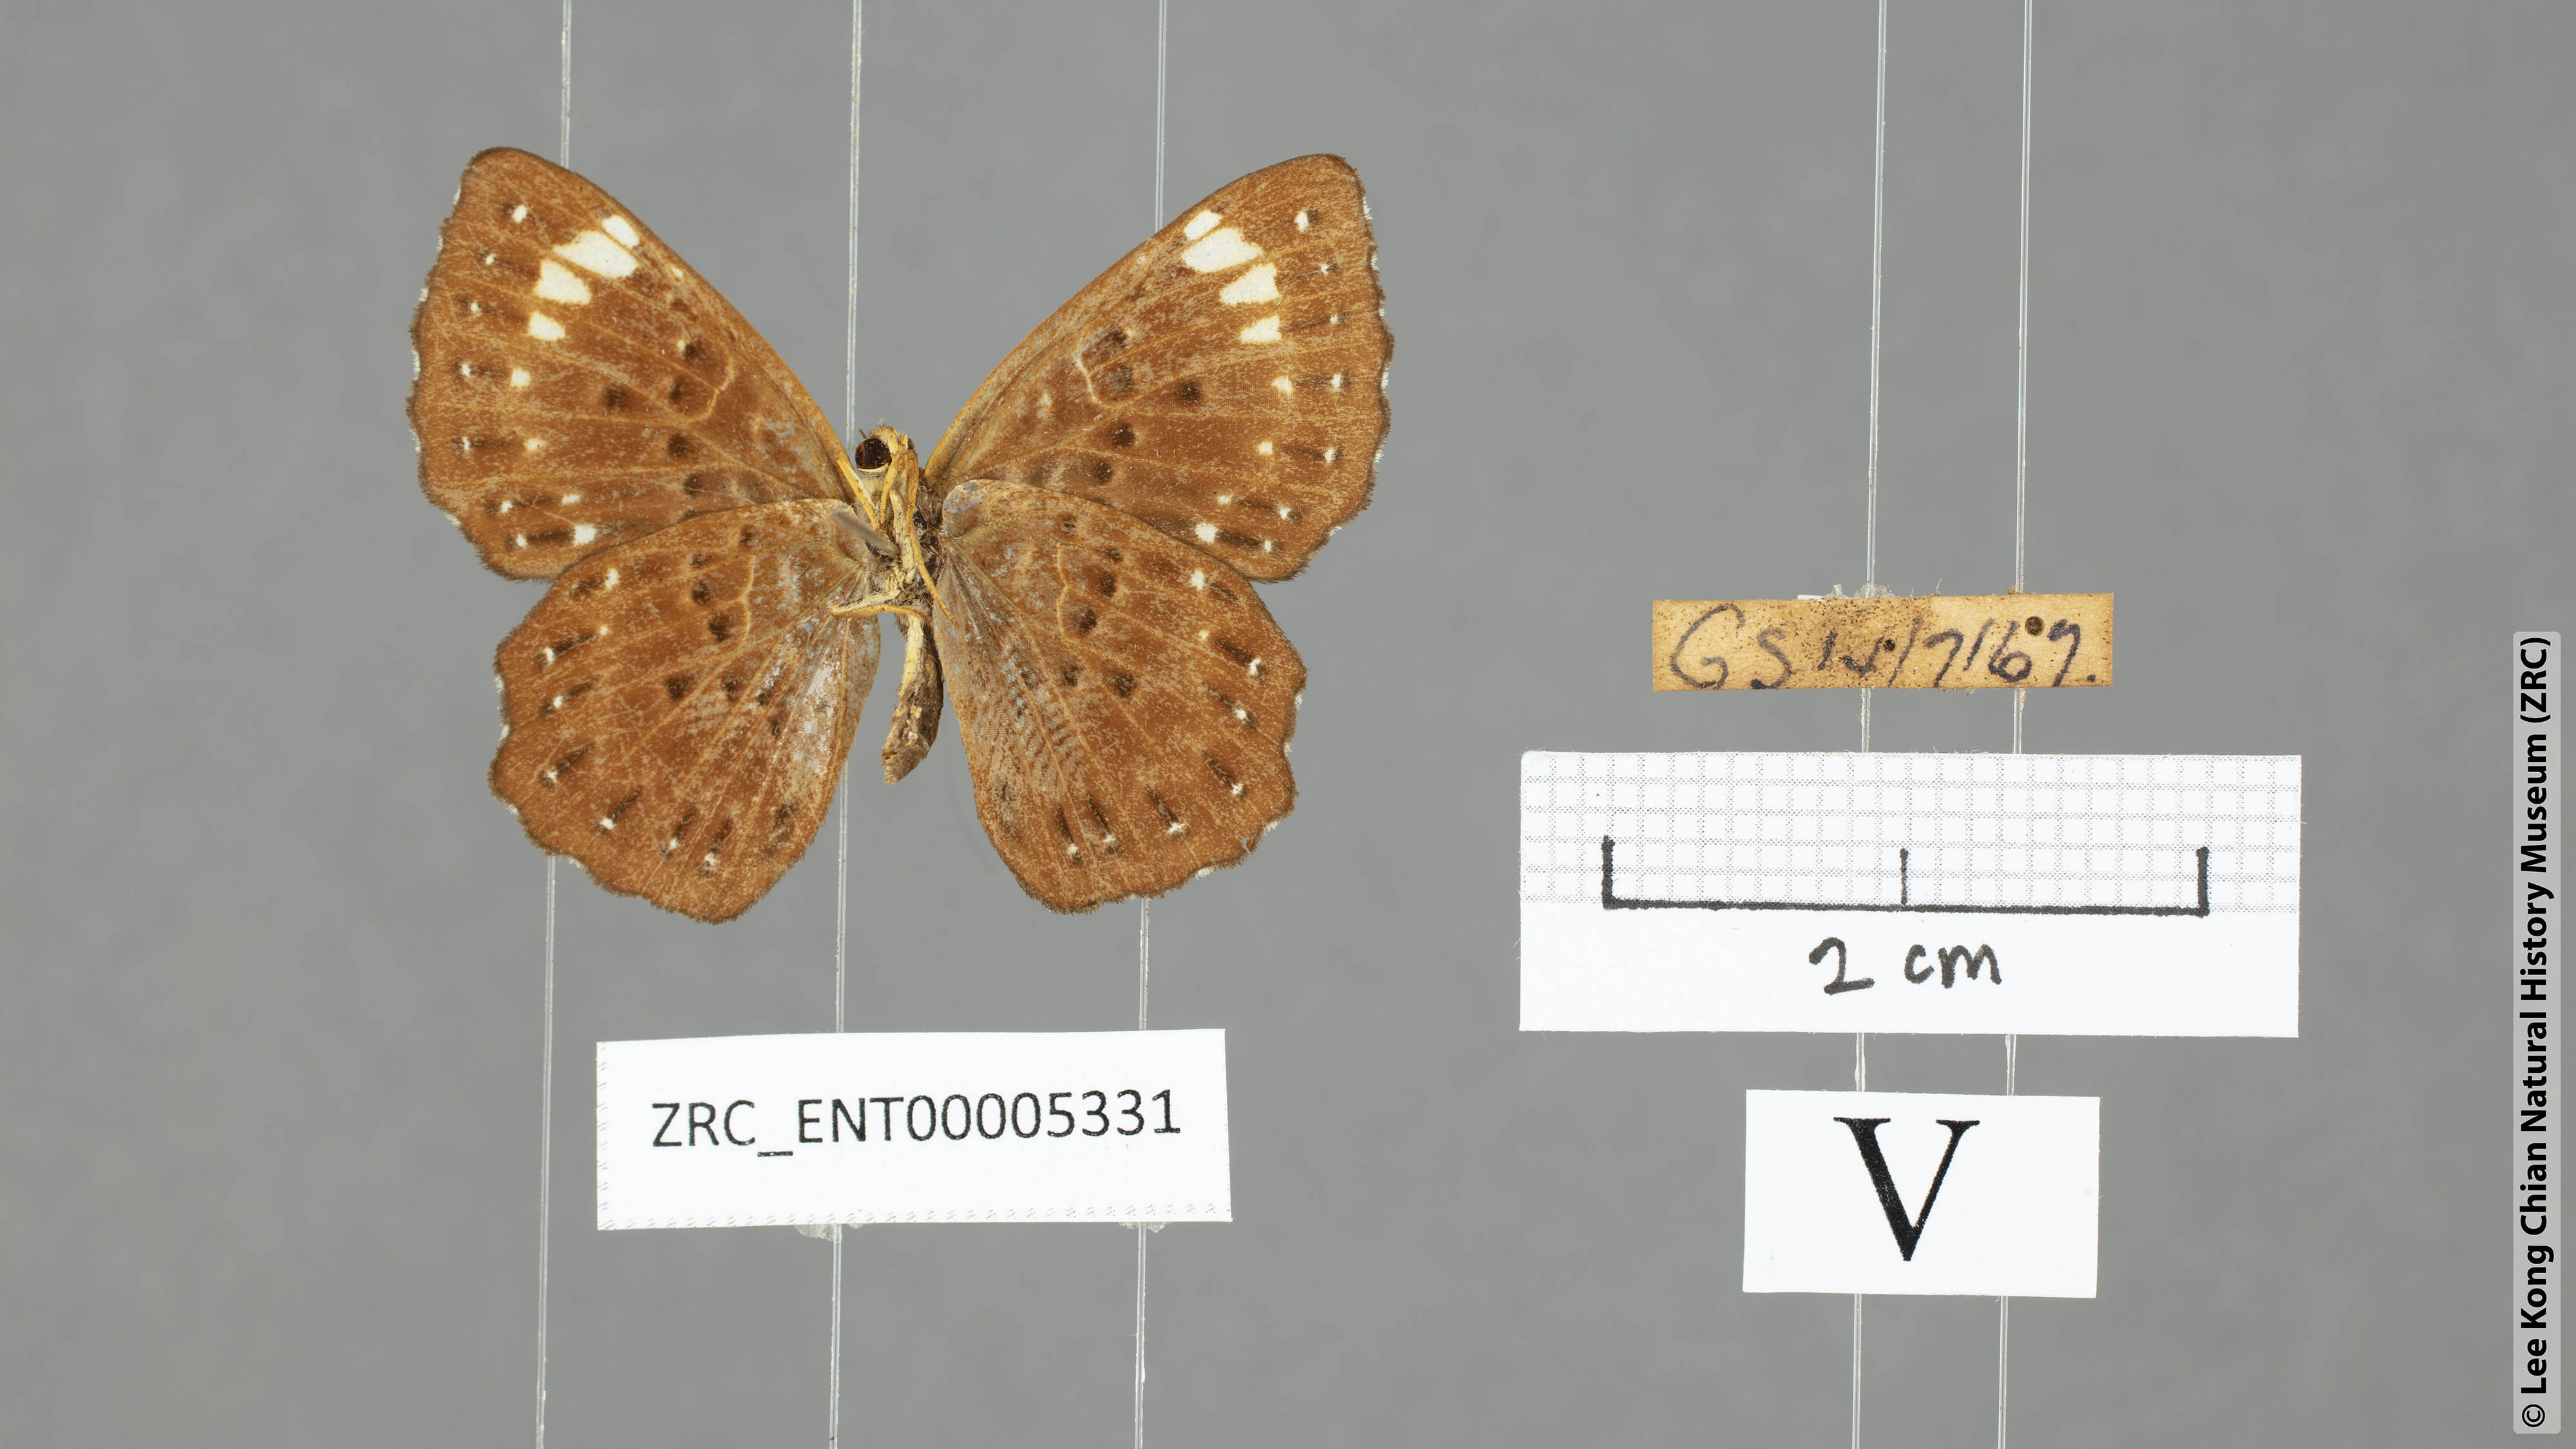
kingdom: Animalia
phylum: Arthropoda
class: Insecta
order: Lepidoptera
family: Riodinidae
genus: Zemeros
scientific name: Zemeros flegyas
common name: Punchinello
